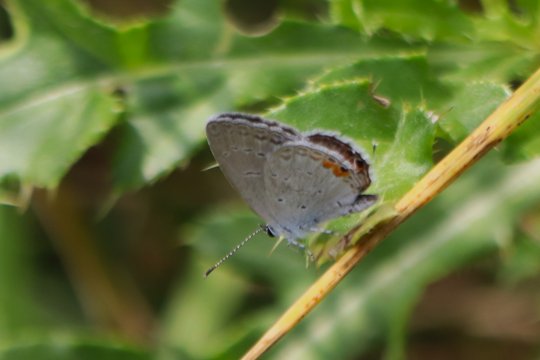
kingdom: Animalia
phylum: Arthropoda
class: Insecta
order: Lepidoptera
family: Lycaenidae
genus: Elkalyce
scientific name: Elkalyce comyntas
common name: Eastern Tailed-Blue
